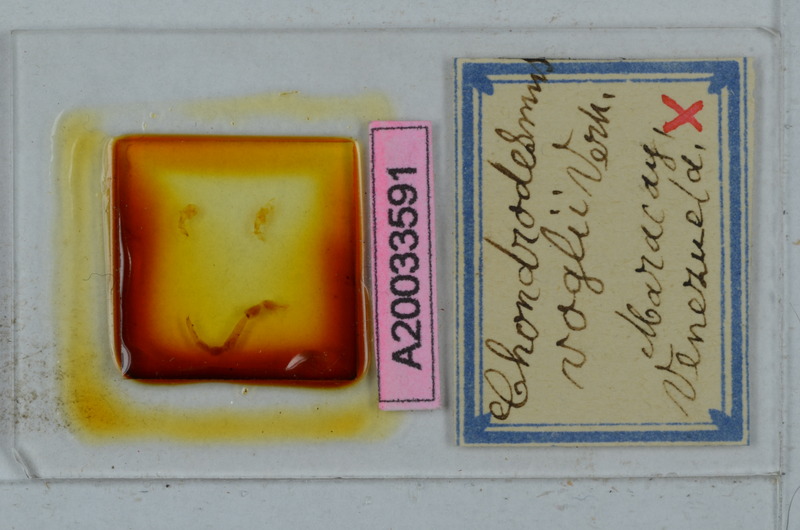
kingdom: Animalia
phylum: Arthropoda
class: Diplopoda
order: Polydesmida
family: Chelodesmidae
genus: Chondrodesmus
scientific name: Chondrodesmus voglii
